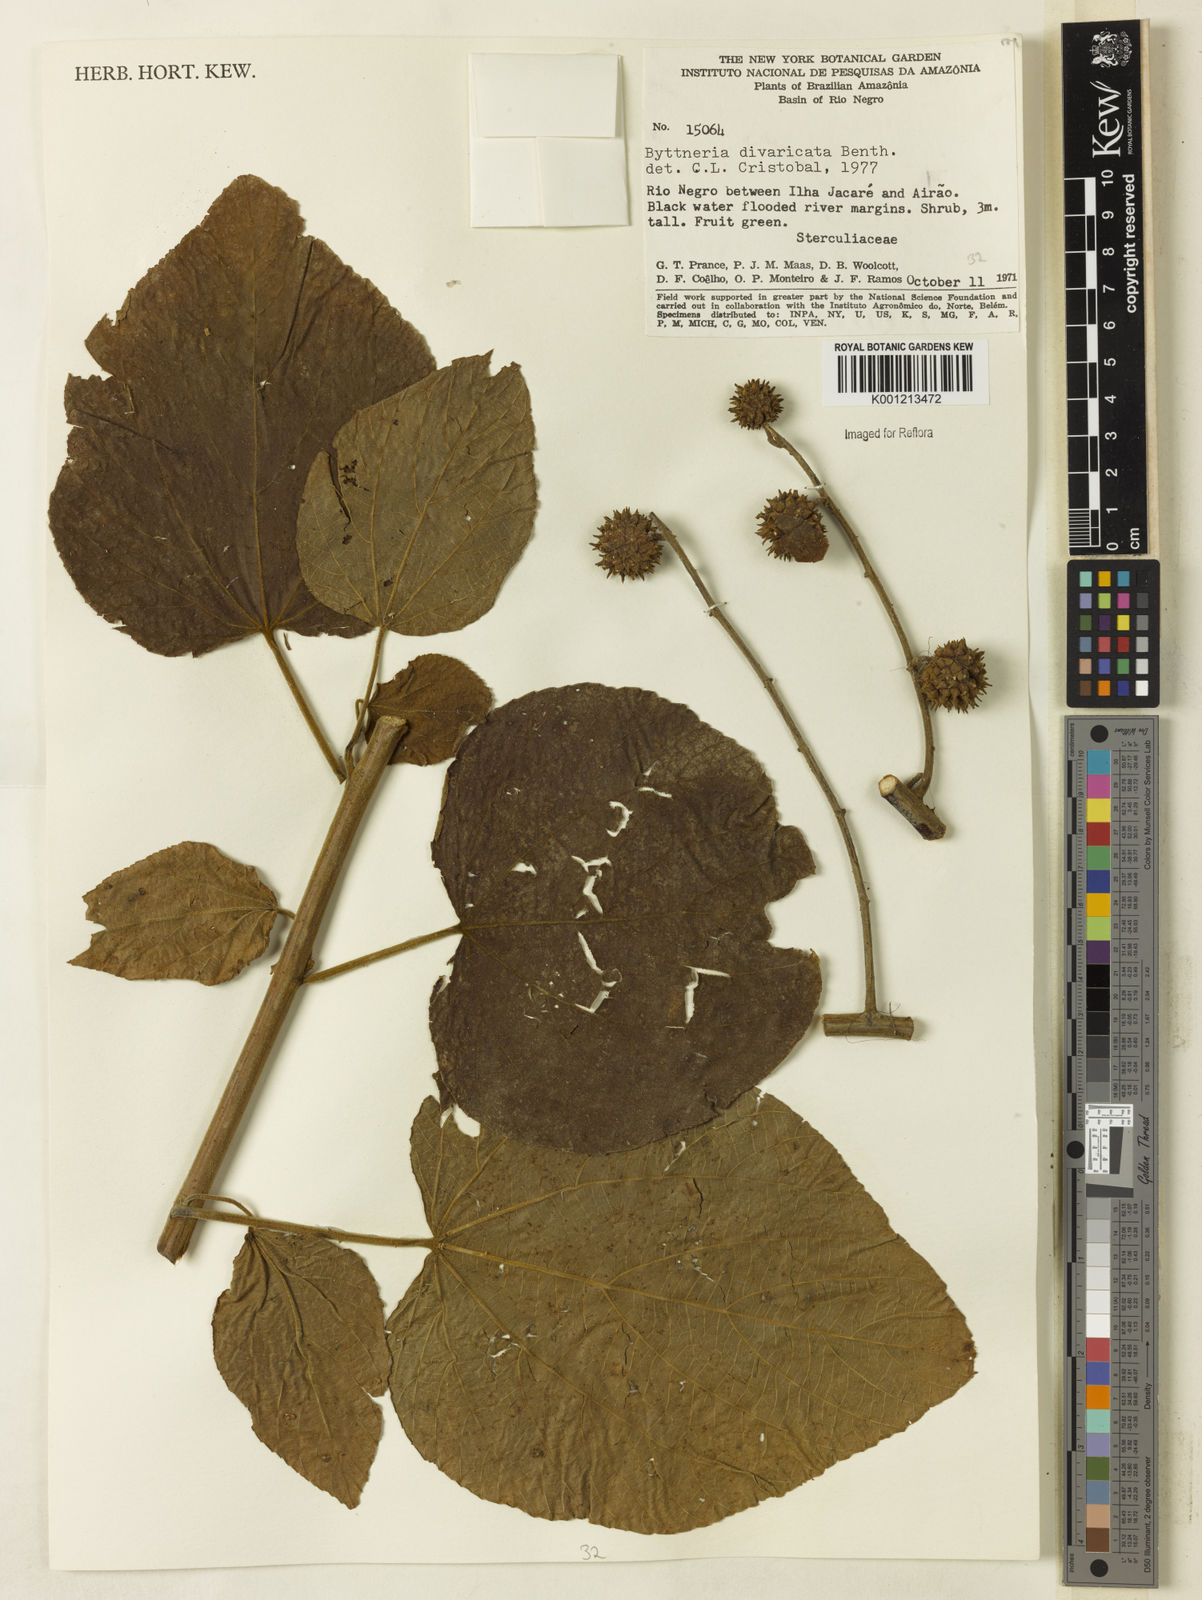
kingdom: Plantae
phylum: Tracheophyta
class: Magnoliopsida
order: Malvales
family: Malvaceae
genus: Byttneria
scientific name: Byttneria divaricata
